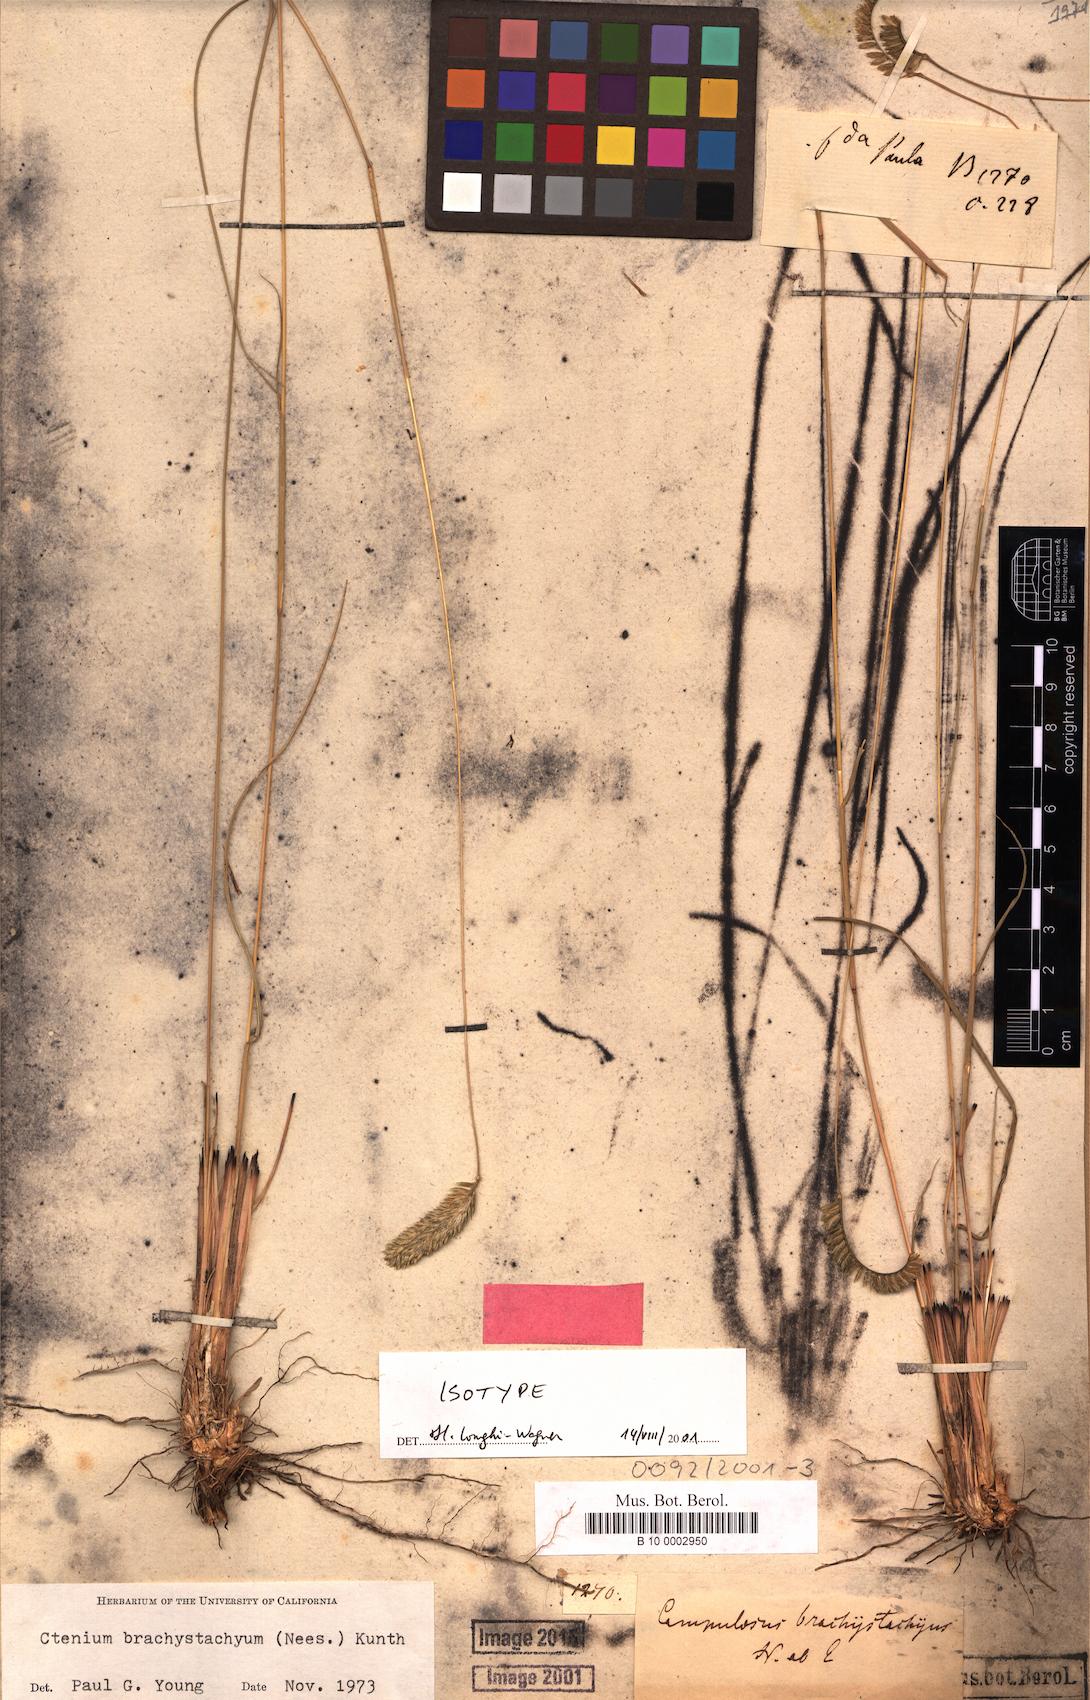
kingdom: Plantae
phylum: Tracheophyta
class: Liliopsida
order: Poales
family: Poaceae
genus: Ctenium
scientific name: Ctenium brachystachyum
